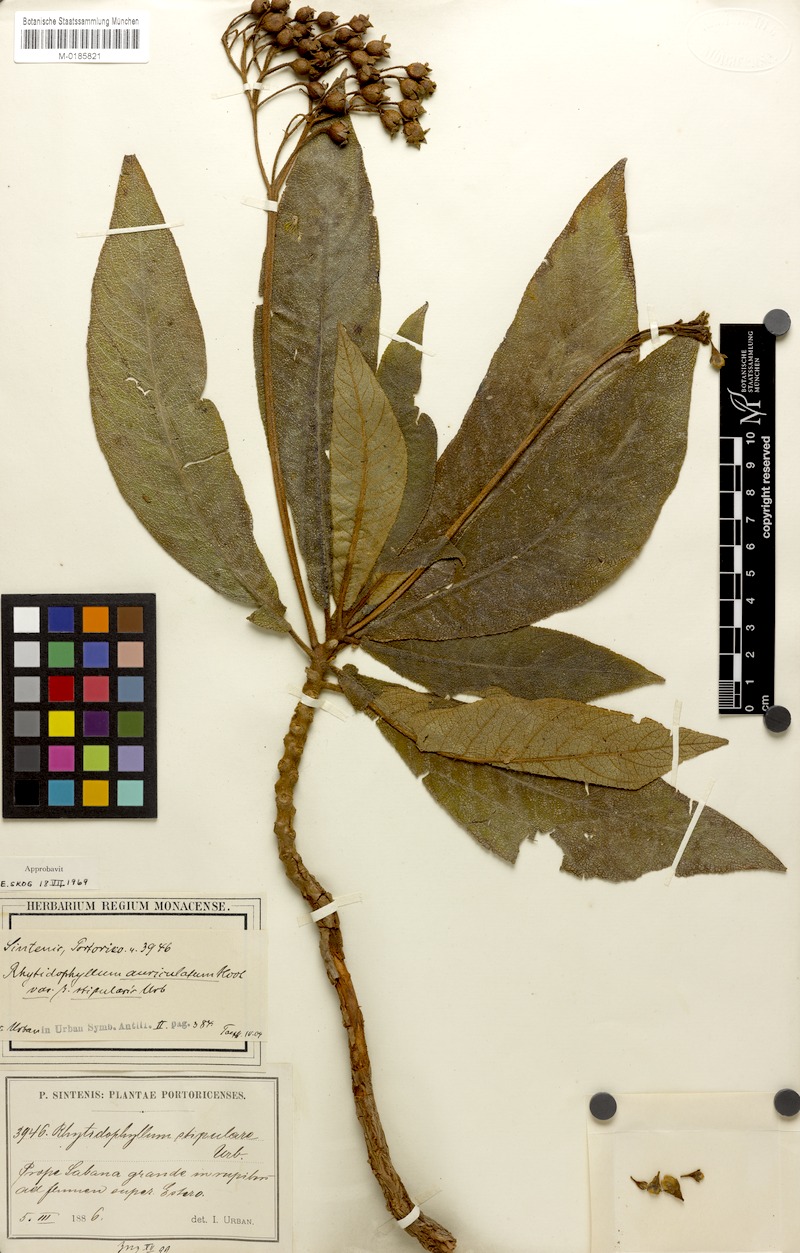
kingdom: Plantae
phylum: Tracheophyta
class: Magnoliopsida
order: Lamiales
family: Gesneriaceae
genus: Rhytidophyllum
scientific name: Rhytidophyllum auriculatum
